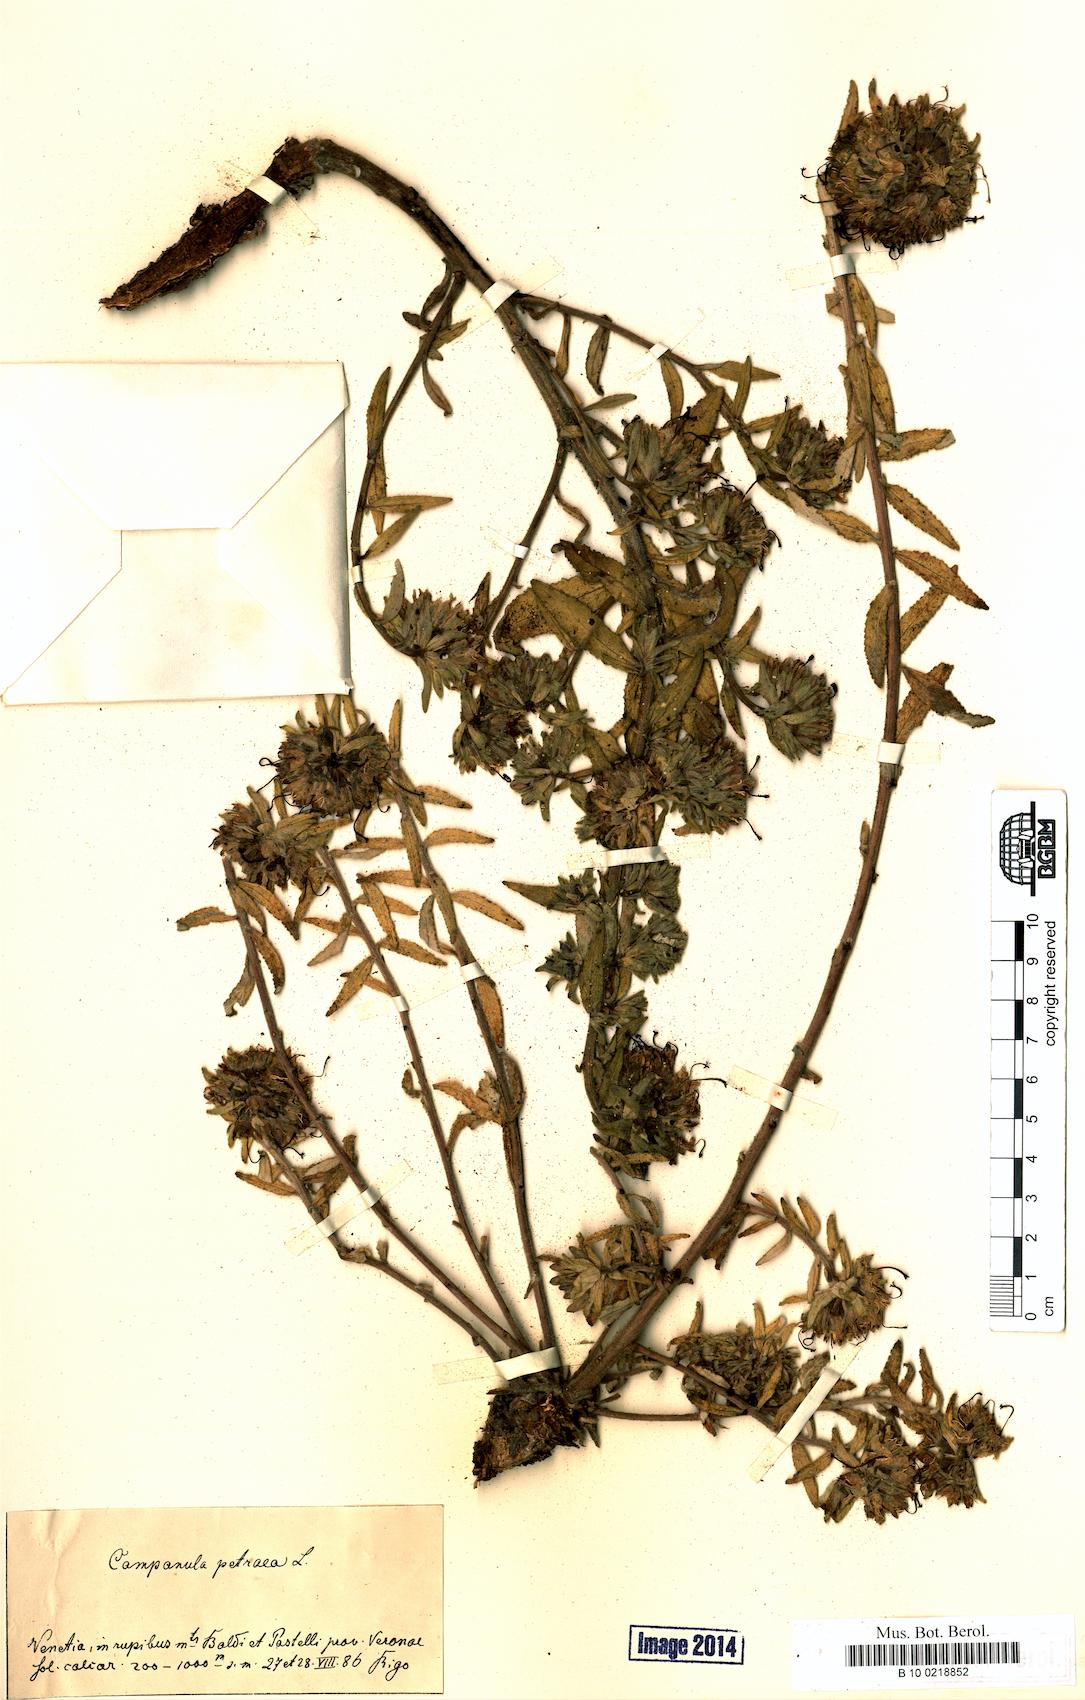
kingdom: Plantae
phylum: Tracheophyta
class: Magnoliopsida
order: Asterales
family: Campanulaceae
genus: Campanula
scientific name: Campanula petraea
